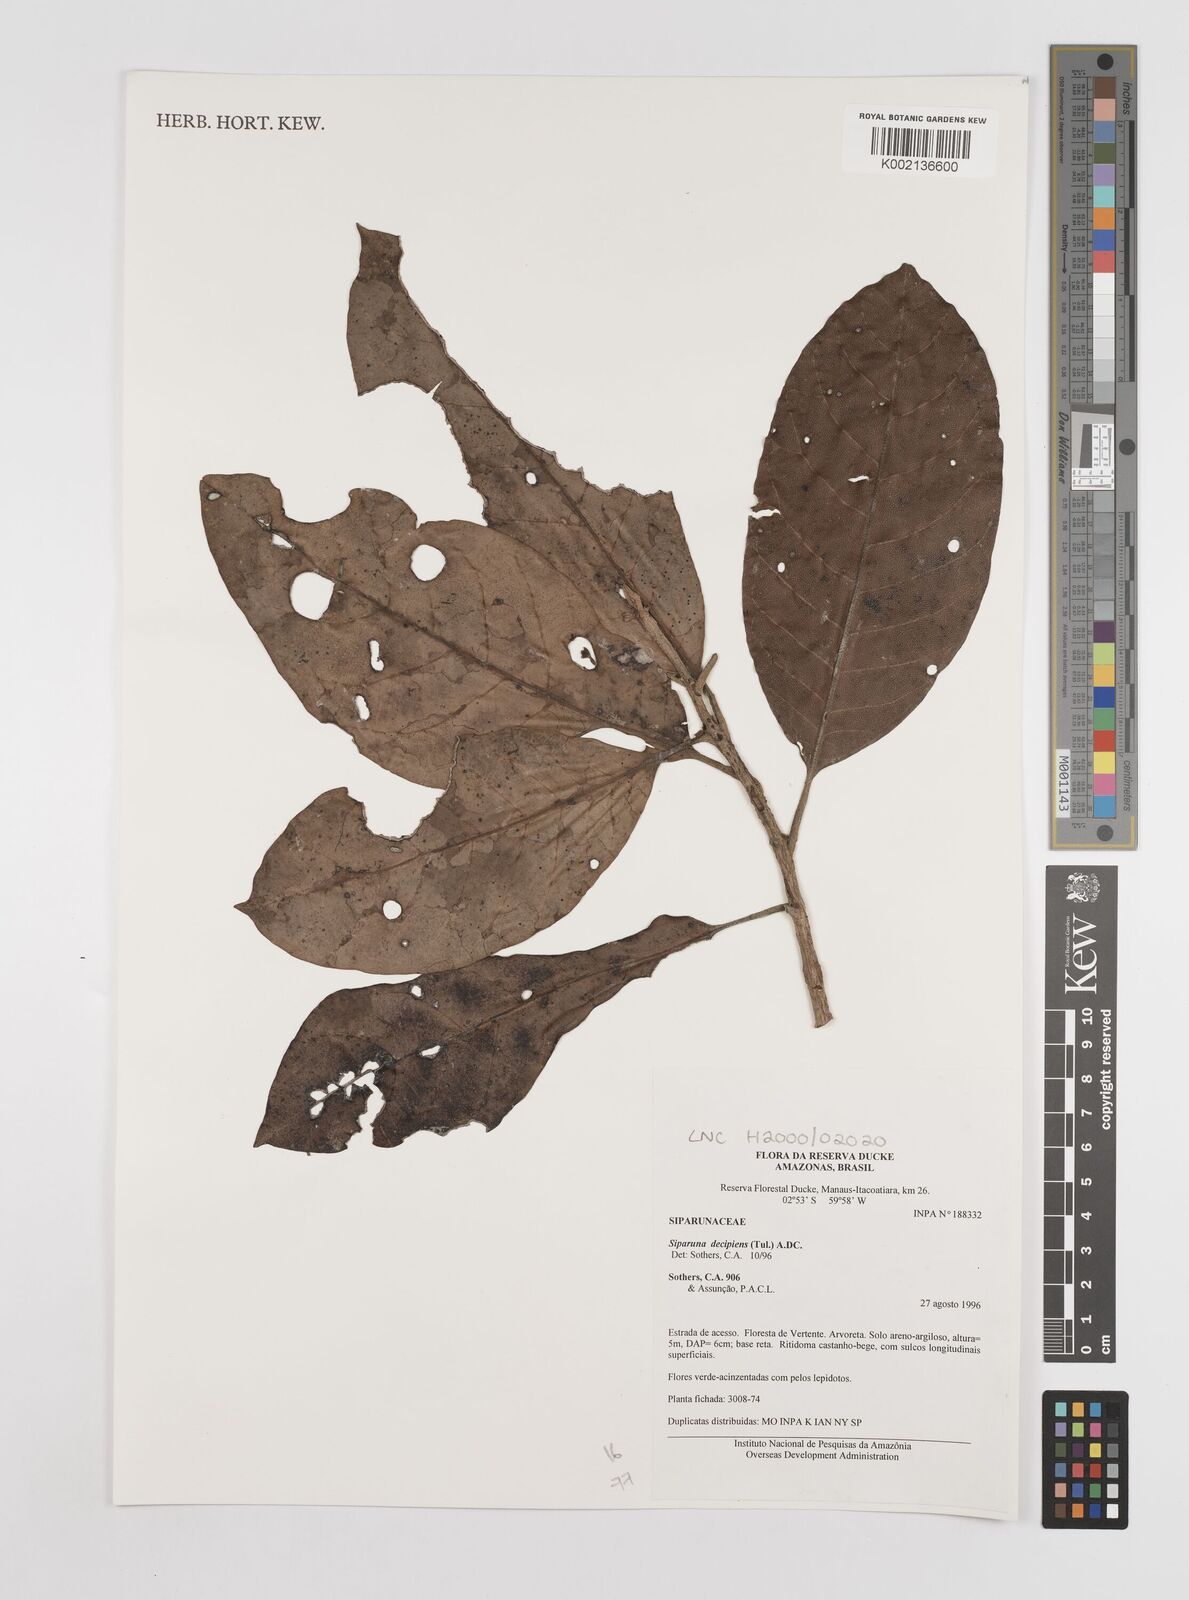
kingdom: Plantae
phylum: Tracheophyta
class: Magnoliopsida
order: Laurales
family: Siparunaceae
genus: Siparuna
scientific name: Siparuna decipiens
